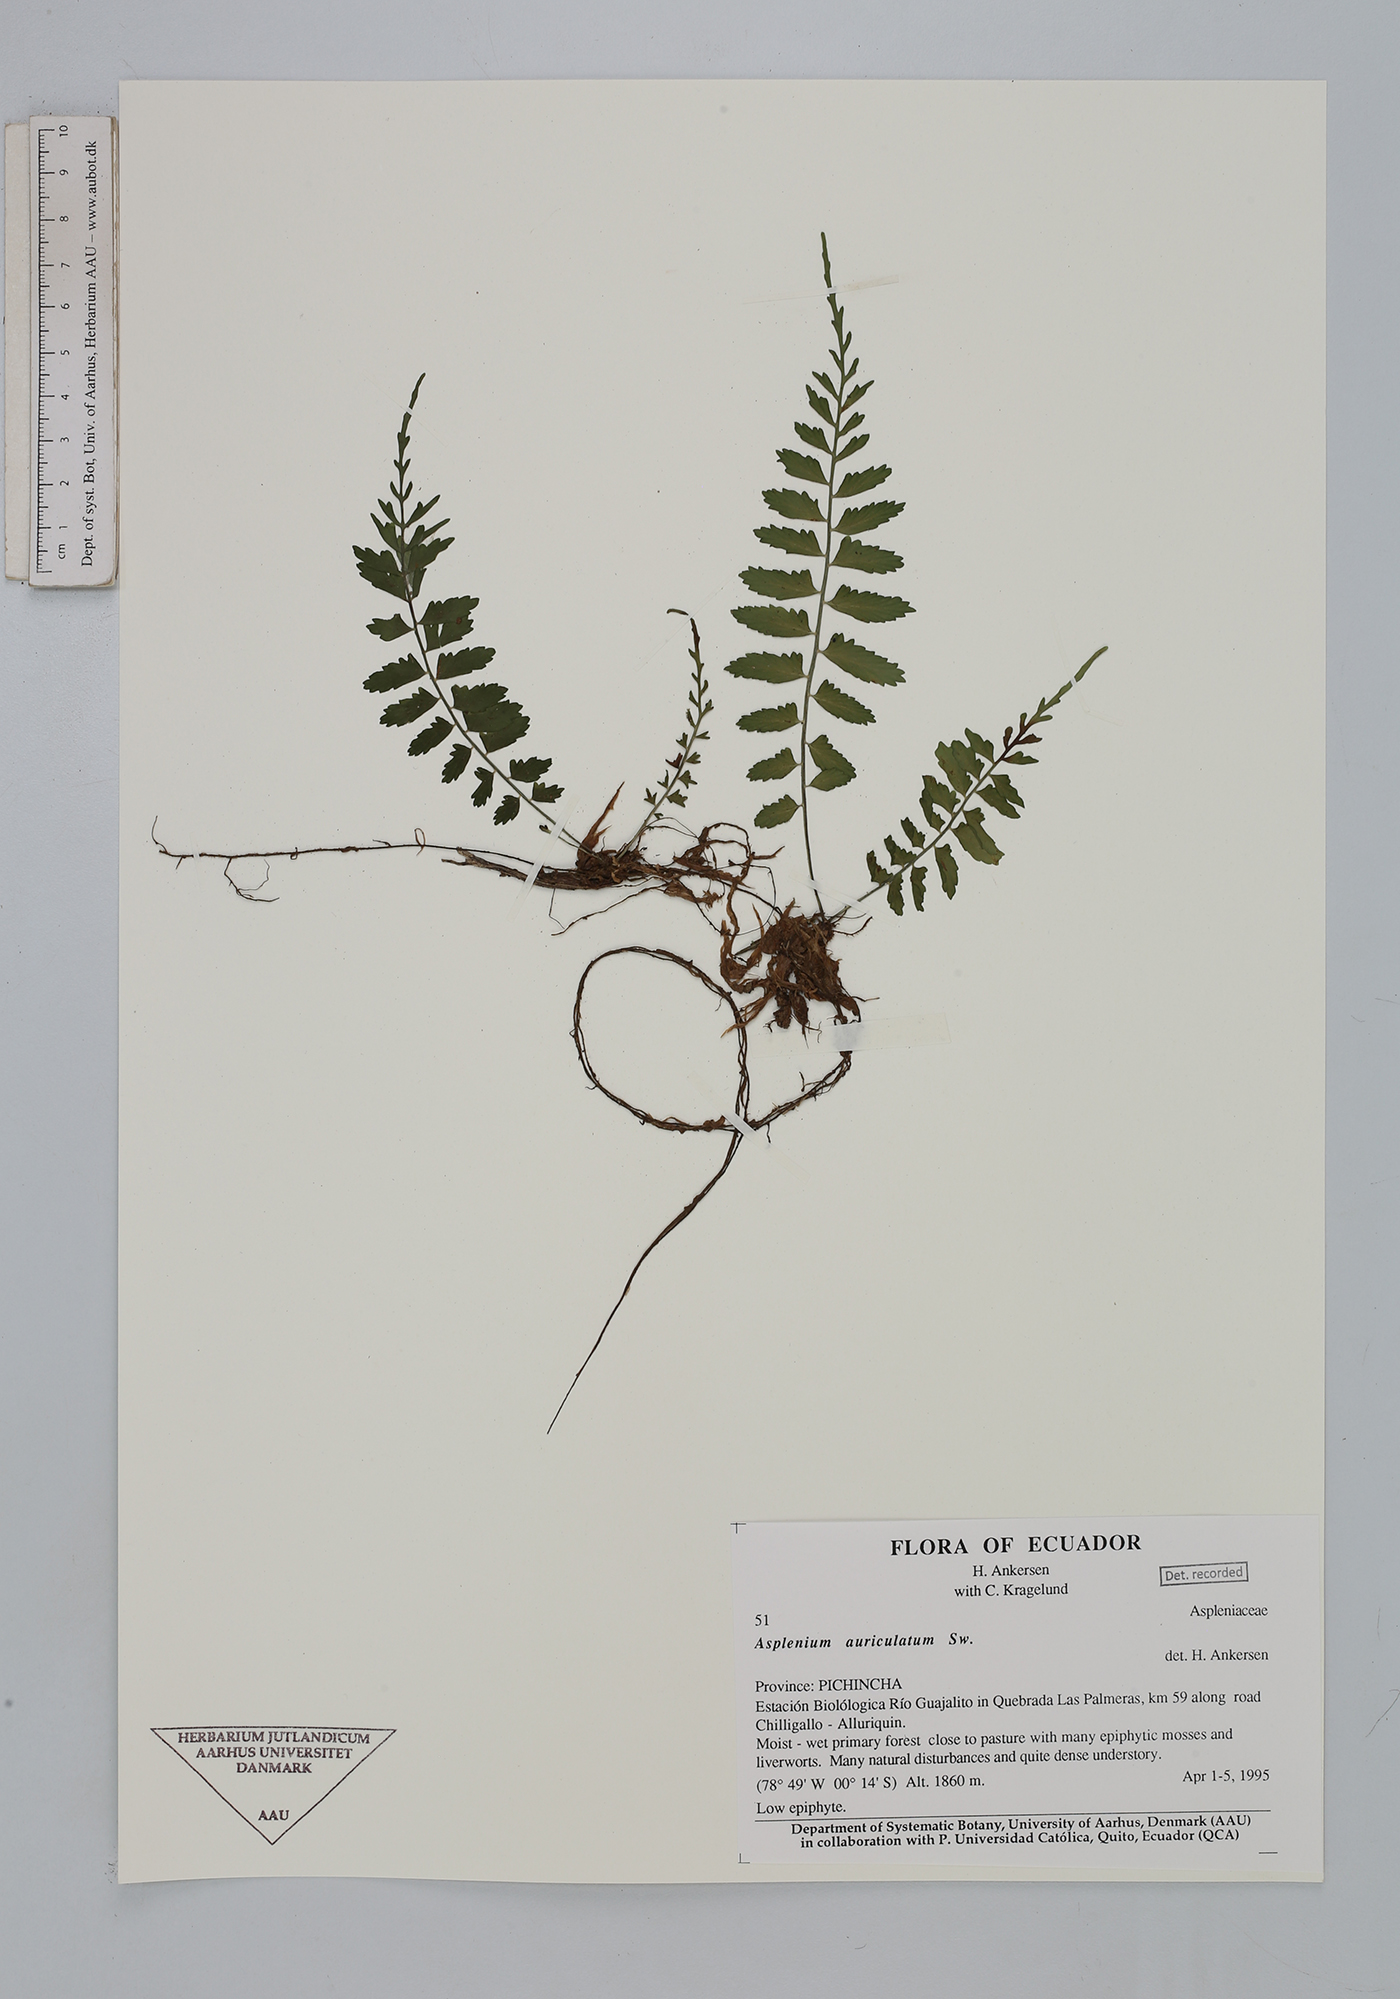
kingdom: Plantae
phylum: Tracheophyta
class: Polypodiopsida
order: Polypodiales
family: Aspleniaceae
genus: Asplenium
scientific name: Asplenium auriculatum
